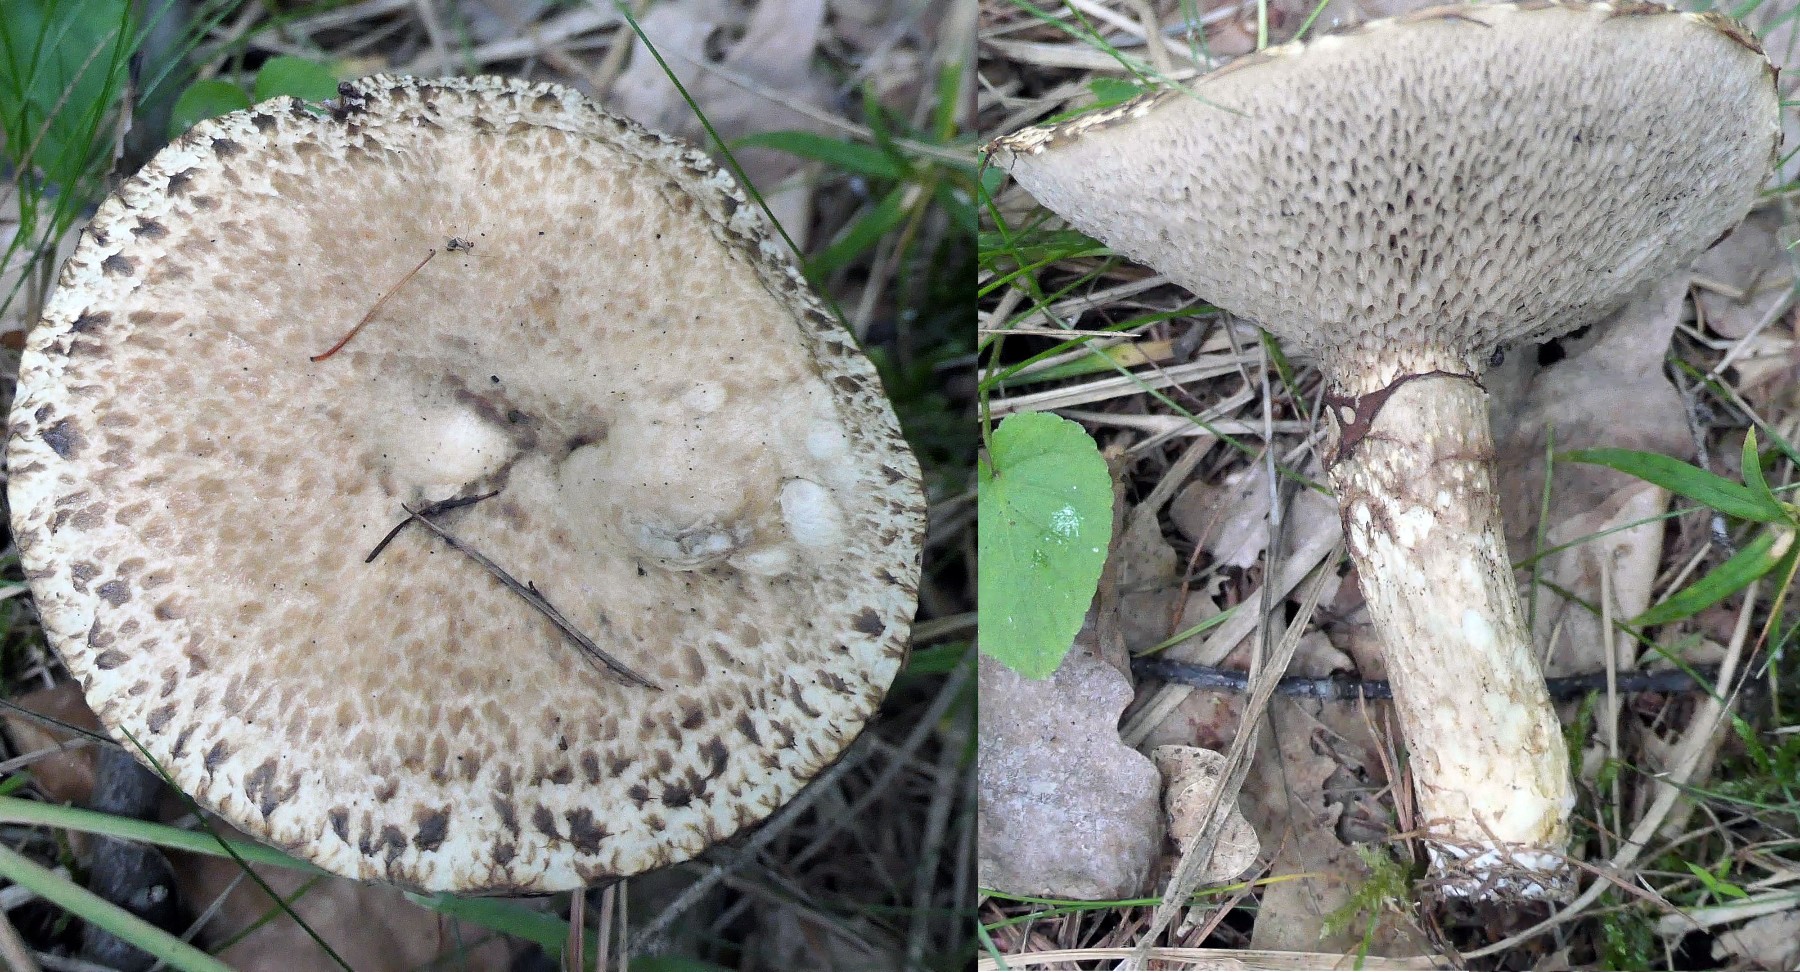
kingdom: Fungi
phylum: Basidiomycota
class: Agaricomycetes
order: Boletales
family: Suillaceae
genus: Suillus
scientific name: Suillus viscidus
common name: olivengrå slimrørhat
